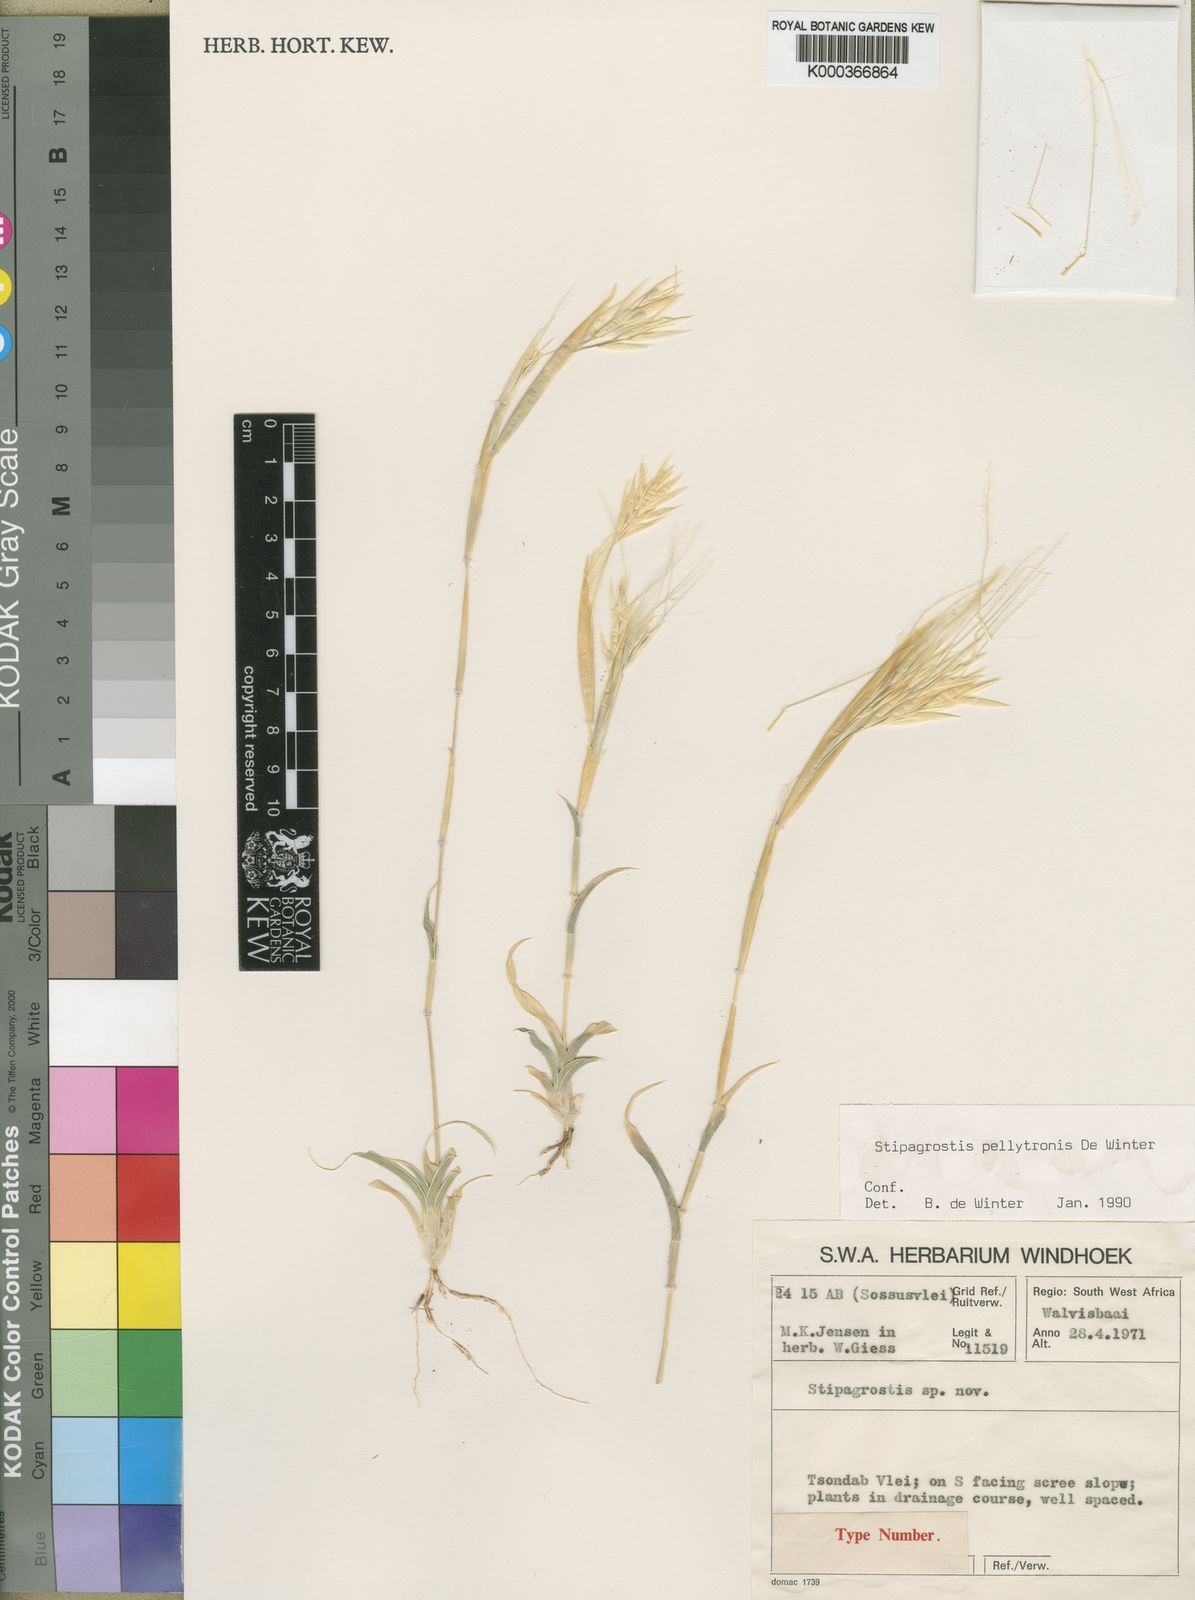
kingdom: Plantae
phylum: Tracheophyta
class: Liliopsida
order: Poales
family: Poaceae
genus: Stipagrostis
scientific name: Stipagrostis pellytronis
